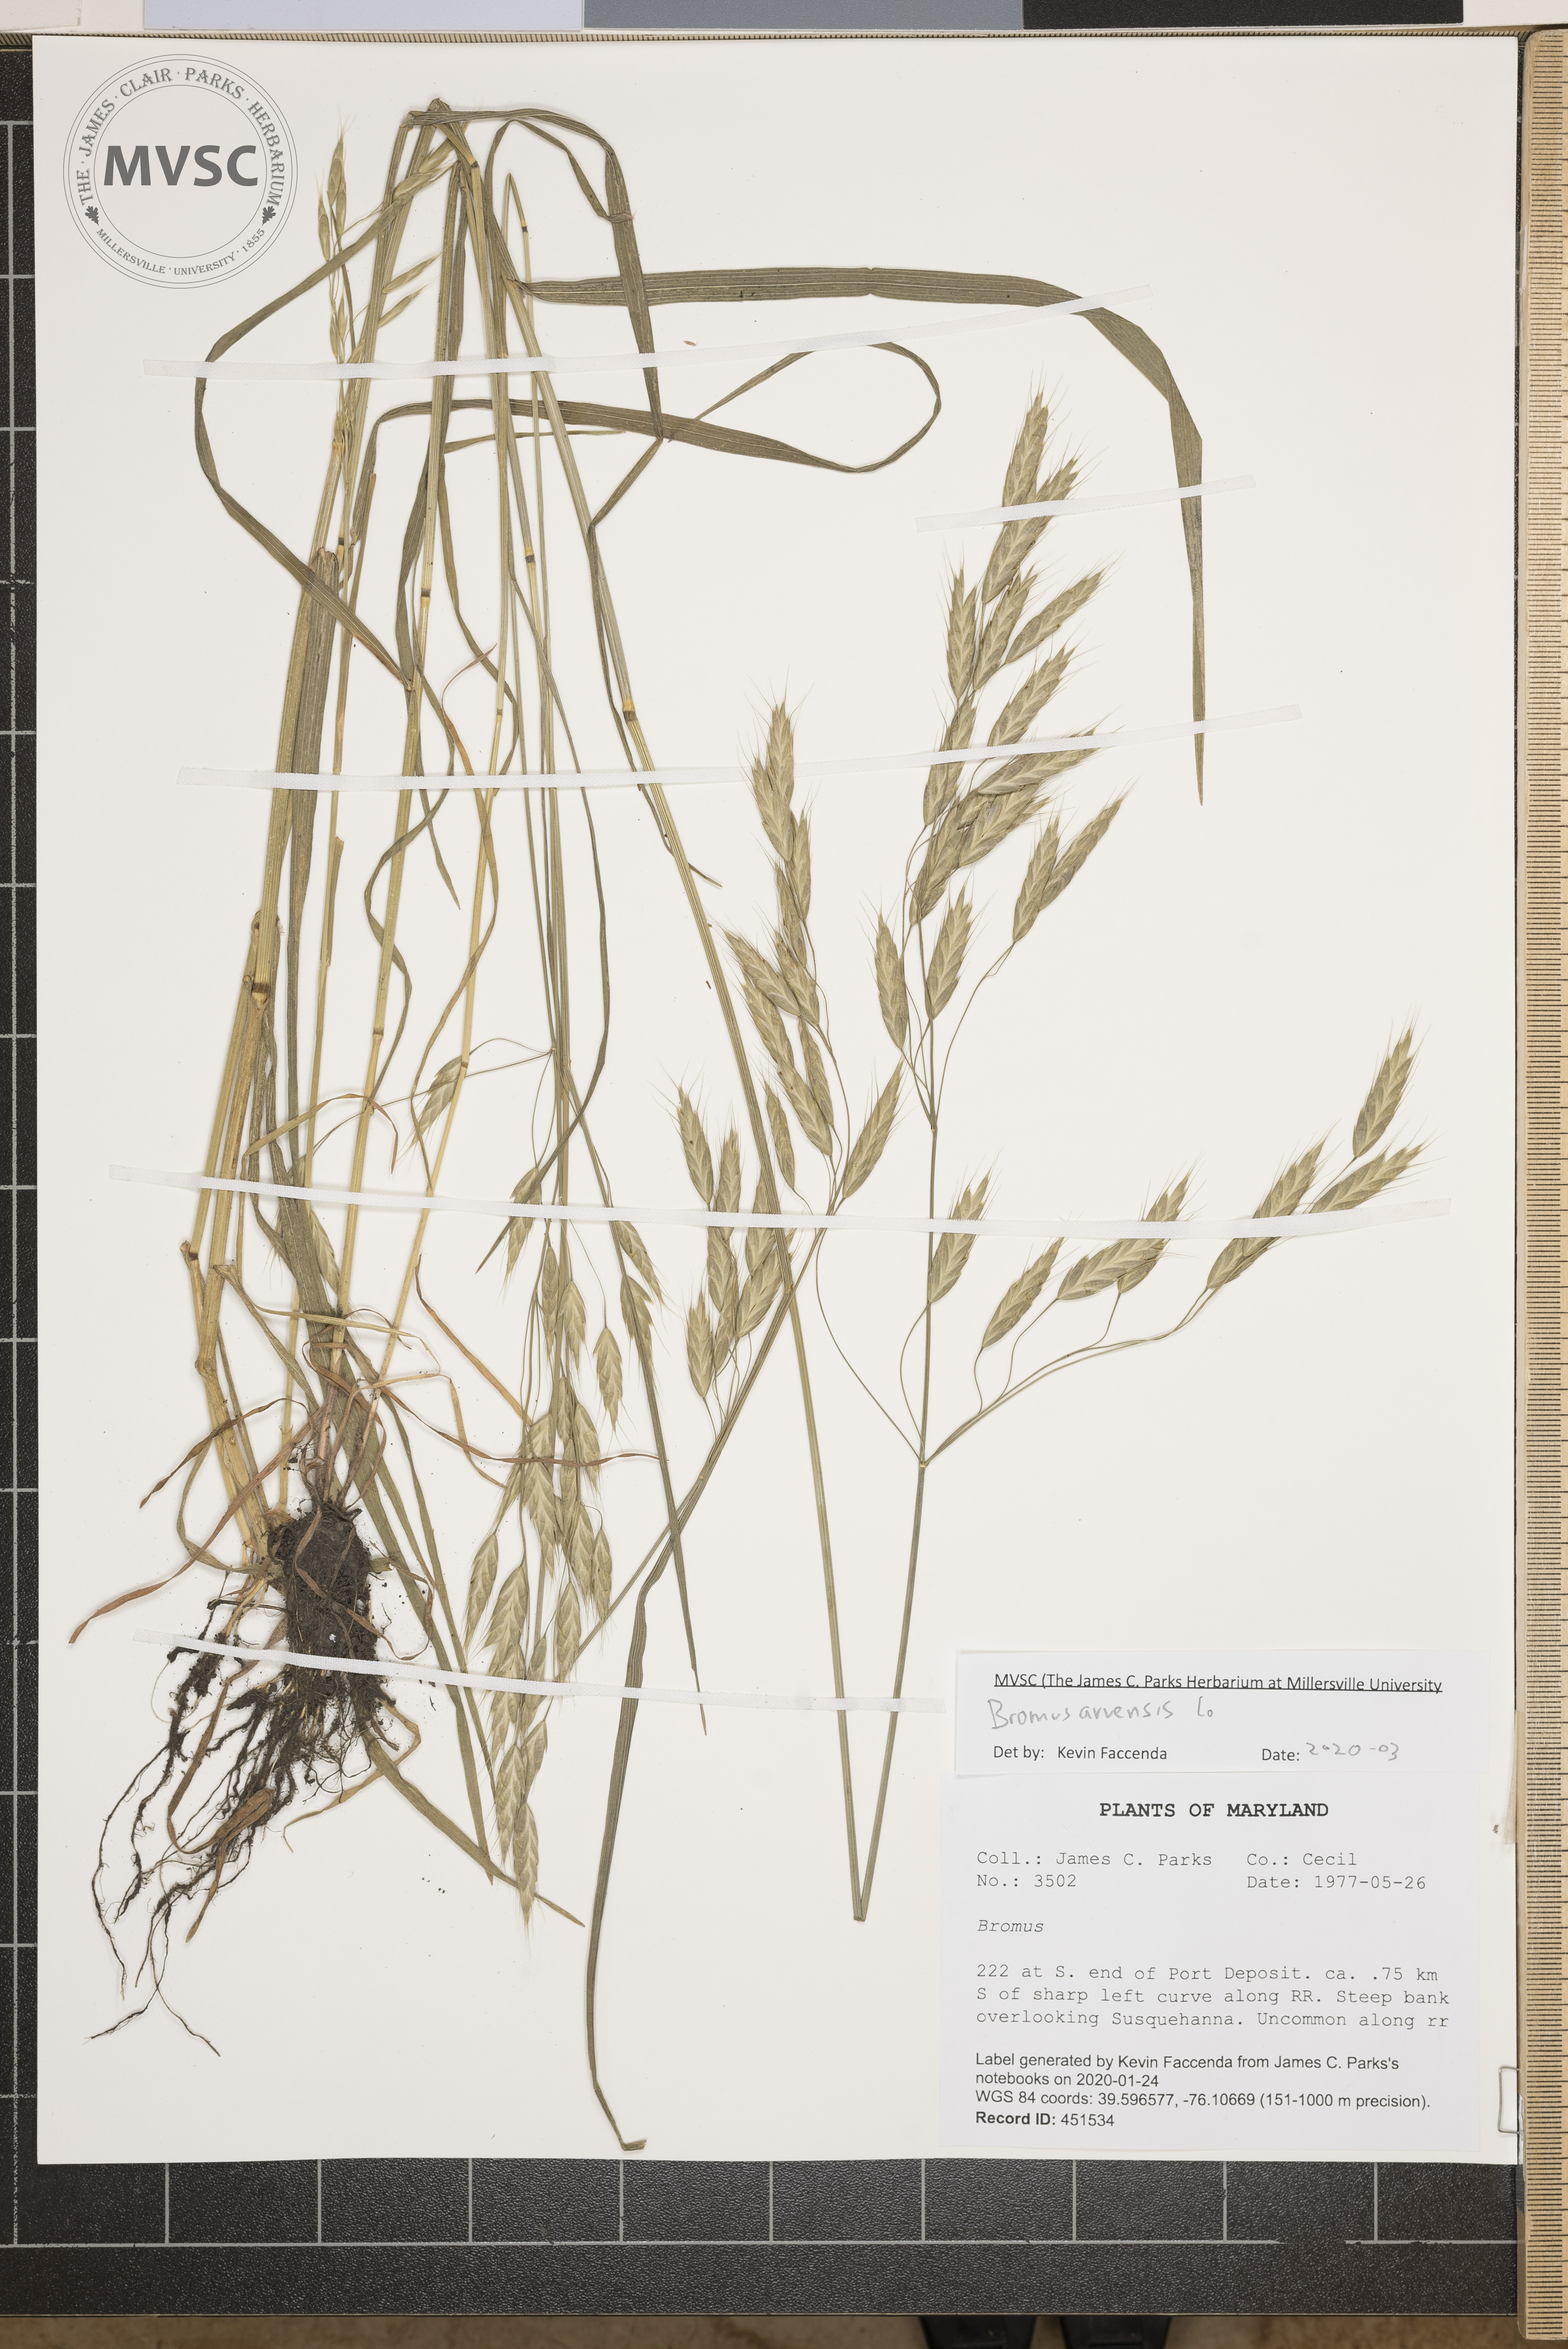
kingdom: Plantae
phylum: Tracheophyta
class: Liliopsida
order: Poales
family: Poaceae
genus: Bromus
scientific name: Bromus arvensis
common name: Field brome
